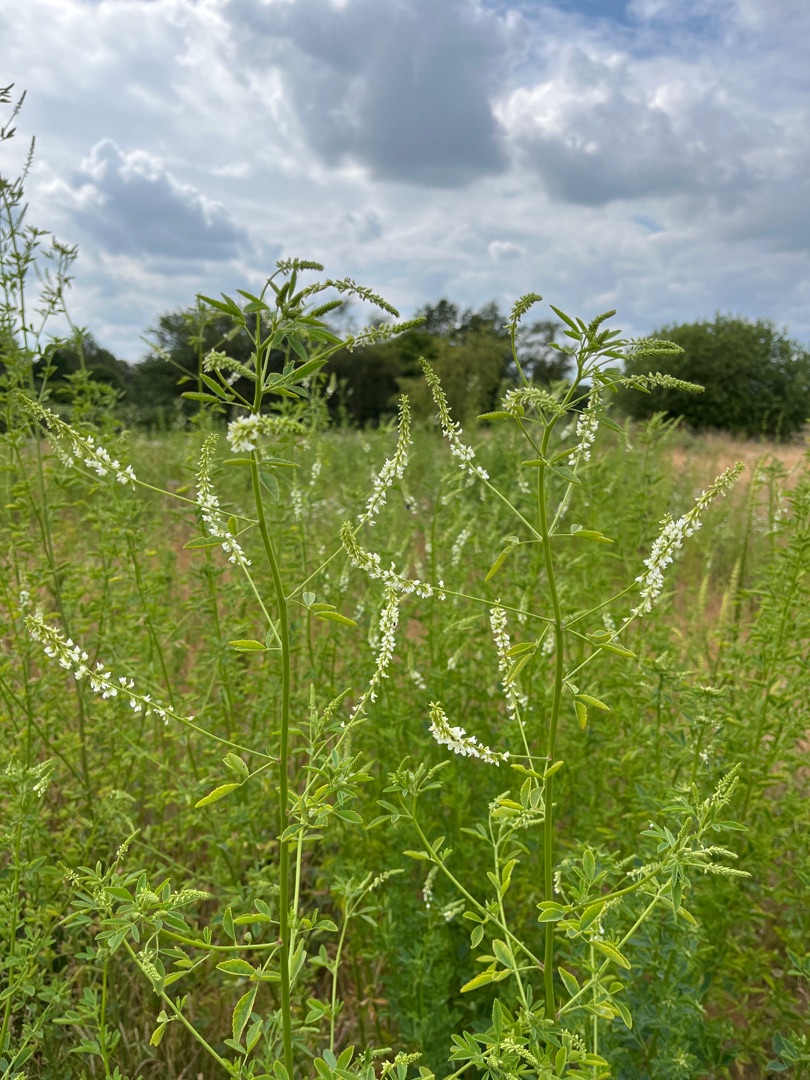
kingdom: Plantae
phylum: Tracheophyta
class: Magnoliopsida
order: Fabales
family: Fabaceae
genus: Melilotus
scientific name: Melilotus albus
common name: Hvid stenkløver
